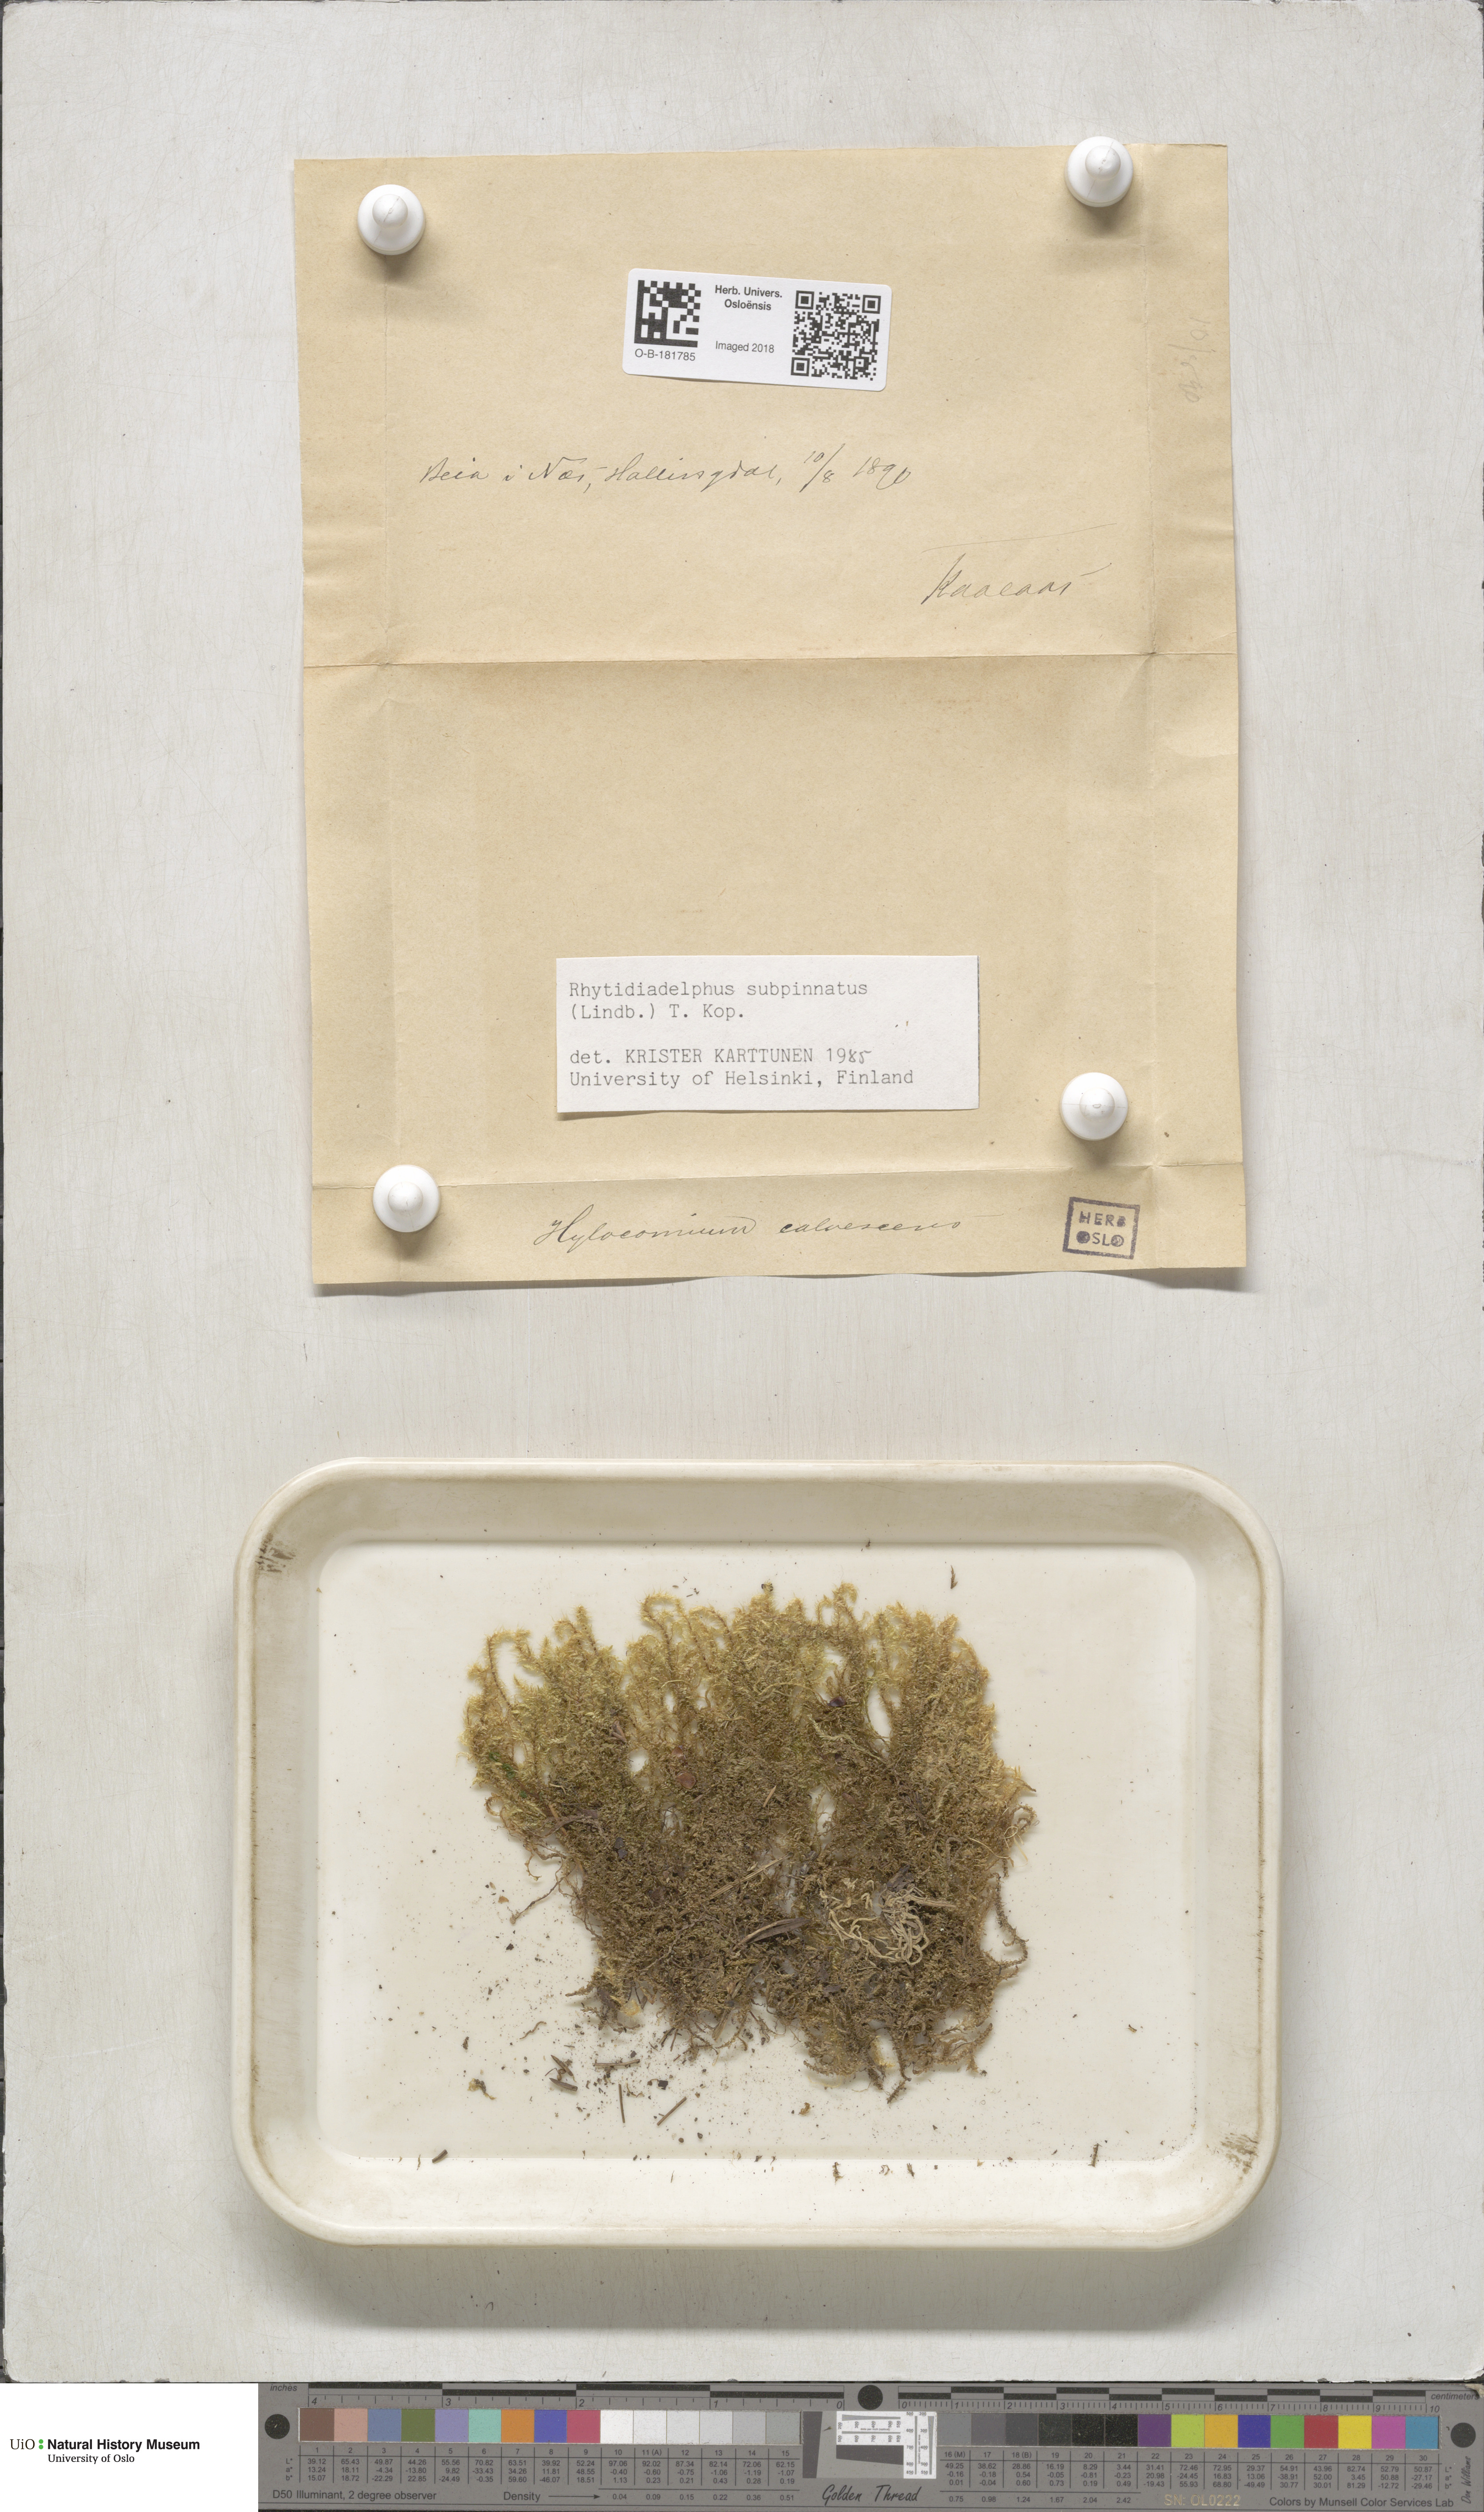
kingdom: Plantae
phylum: Bryophyta
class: Bryopsida
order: Hypnales
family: Hylocomiaceae
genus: Rhytidiadelphus
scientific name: Rhytidiadelphus subpinnatus
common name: Subpinnate gooseneck moss
